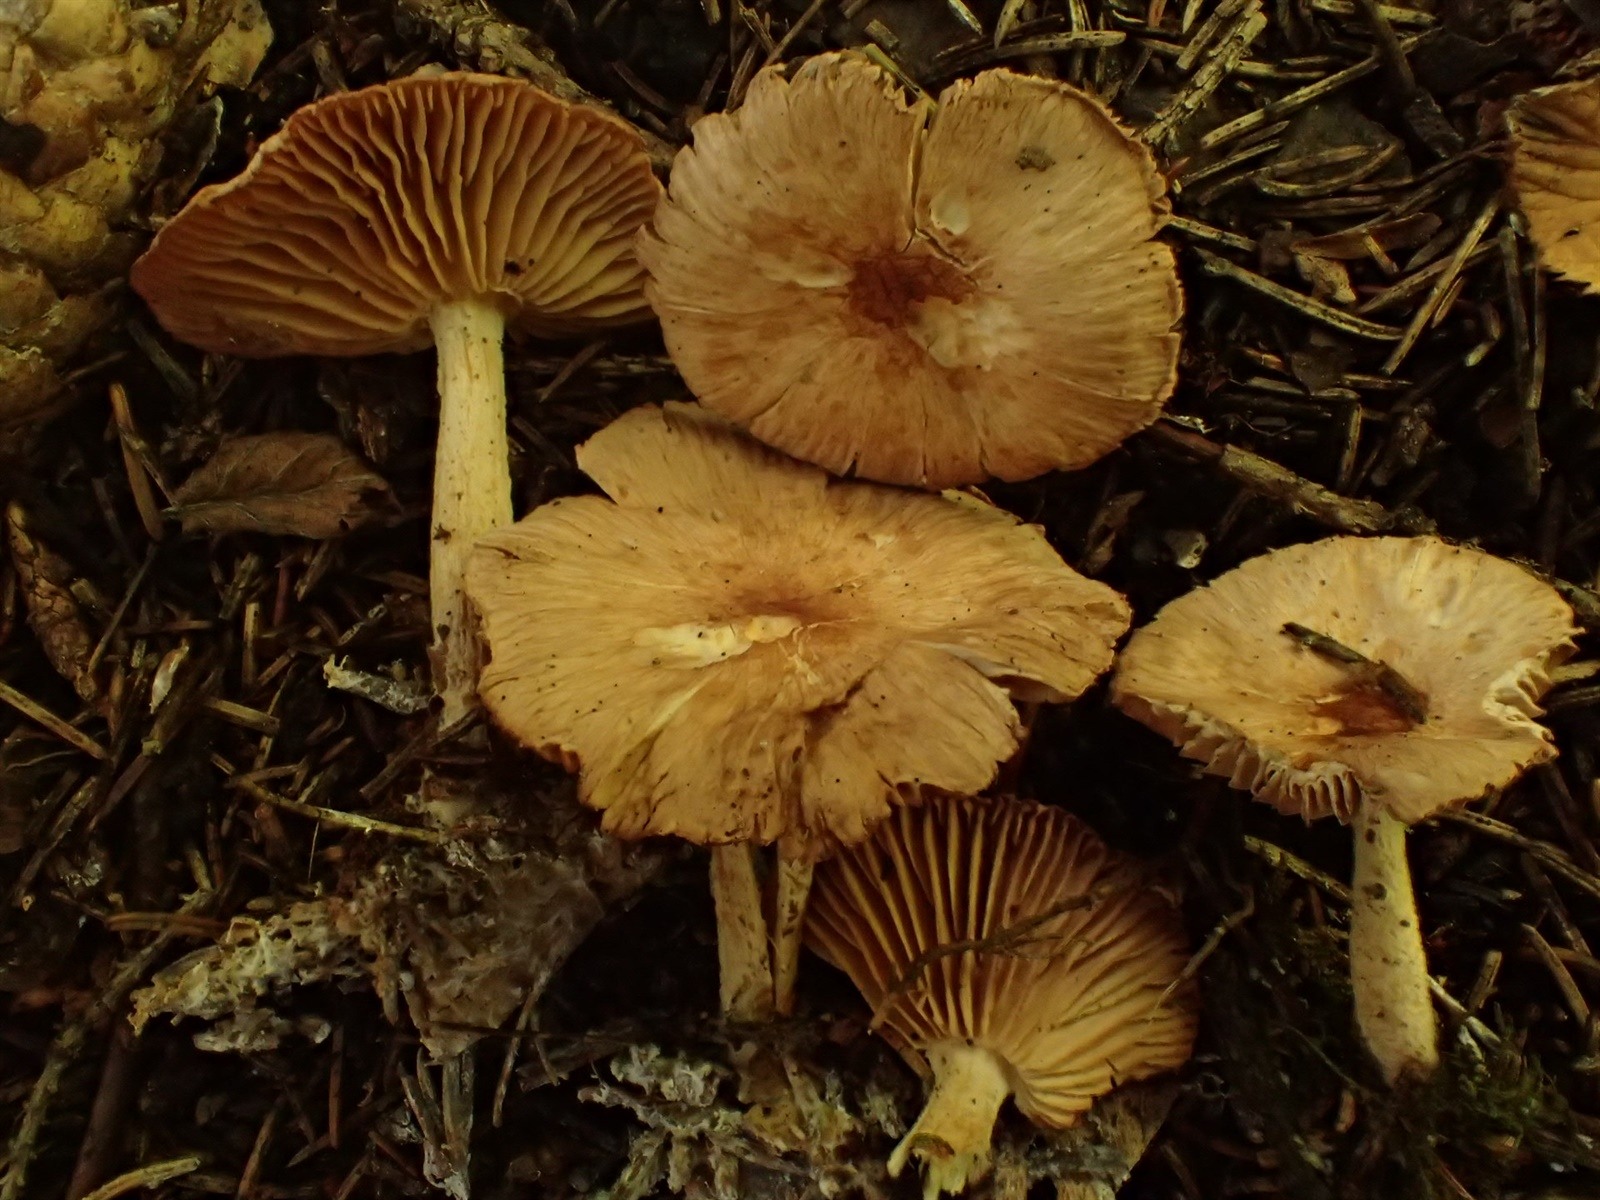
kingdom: Fungi
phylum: Basidiomycota
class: Agaricomycetes
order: Agaricales
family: Omphalotaceae
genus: Gymnopus
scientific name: Gymnopus terginus
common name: Hairy toughshank
